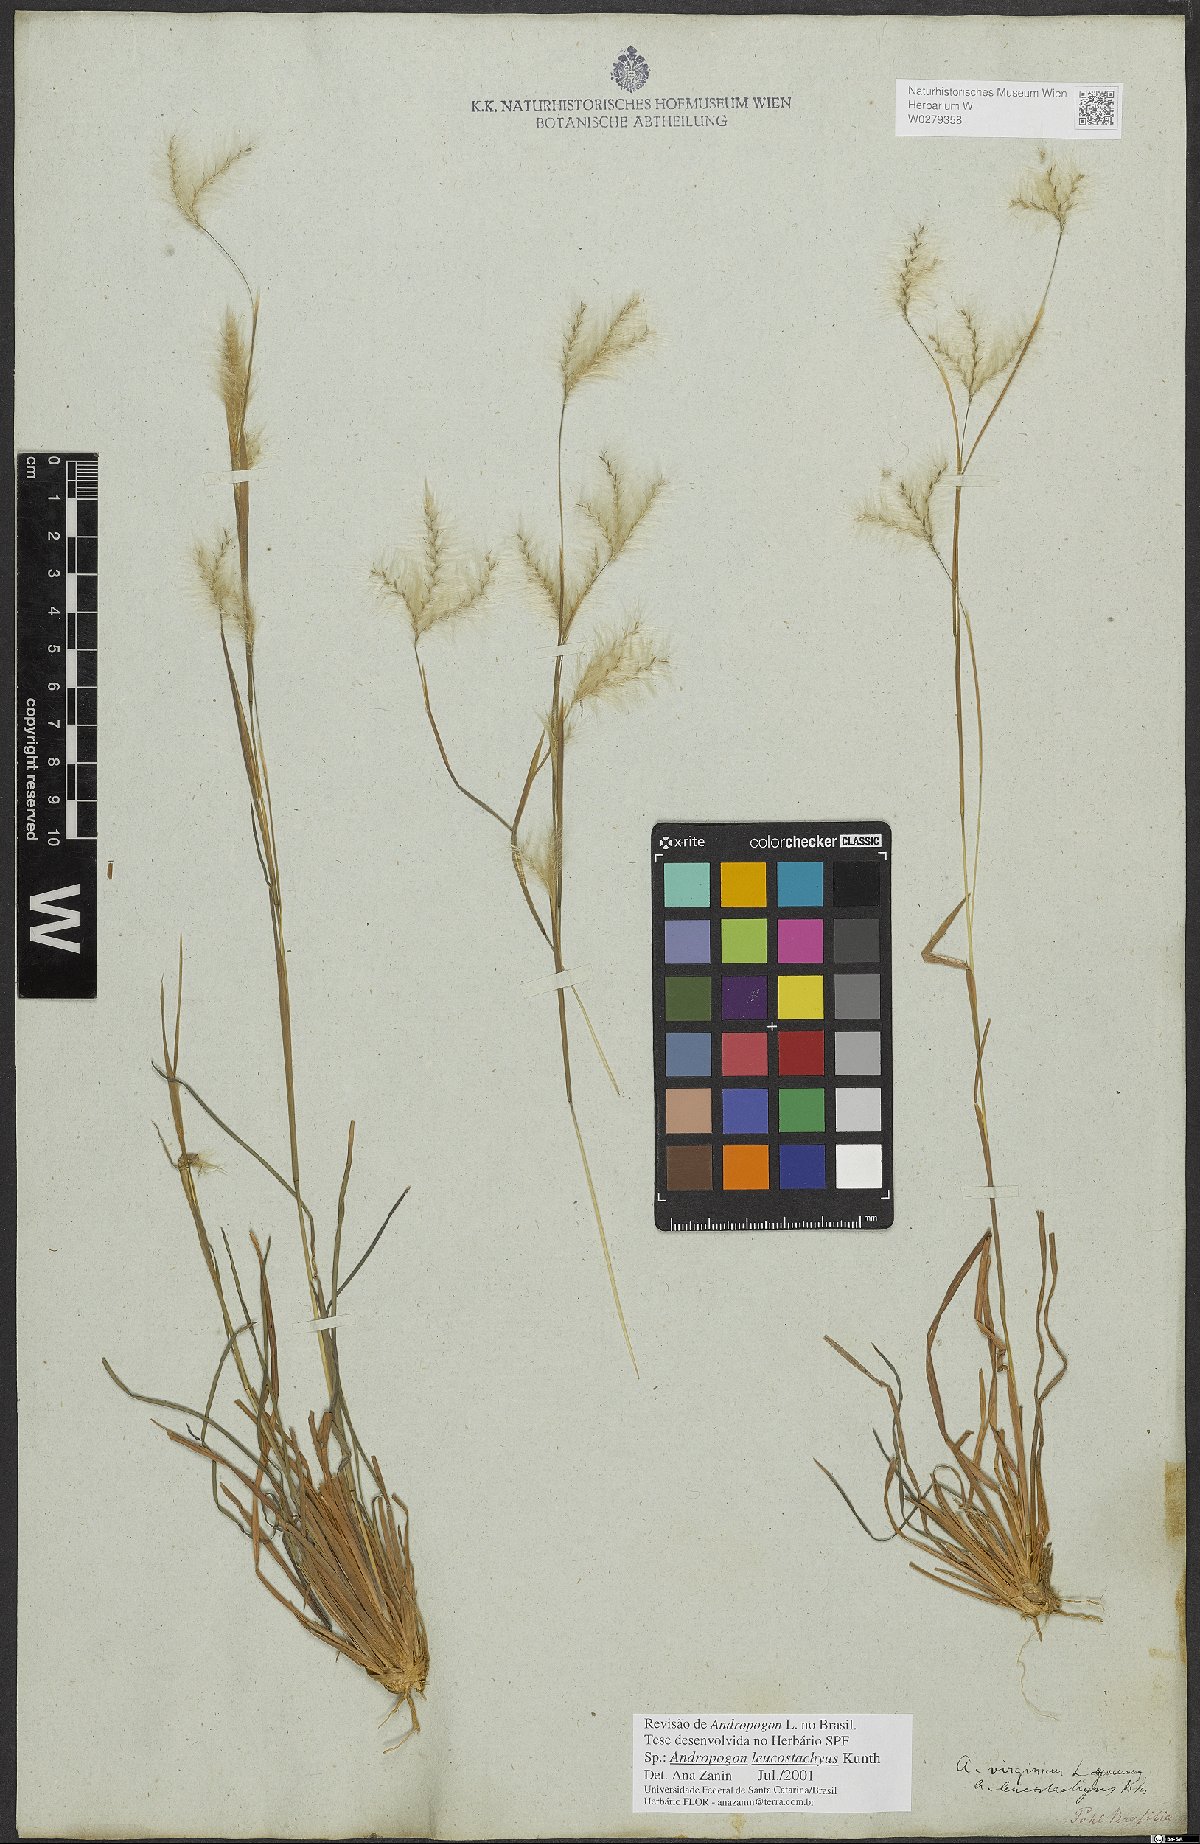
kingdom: Plantae
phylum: Tracheophyta
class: Liliopsida
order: Poales
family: Poaceae
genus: Andropogon
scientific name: Andropogon leucostachyus
